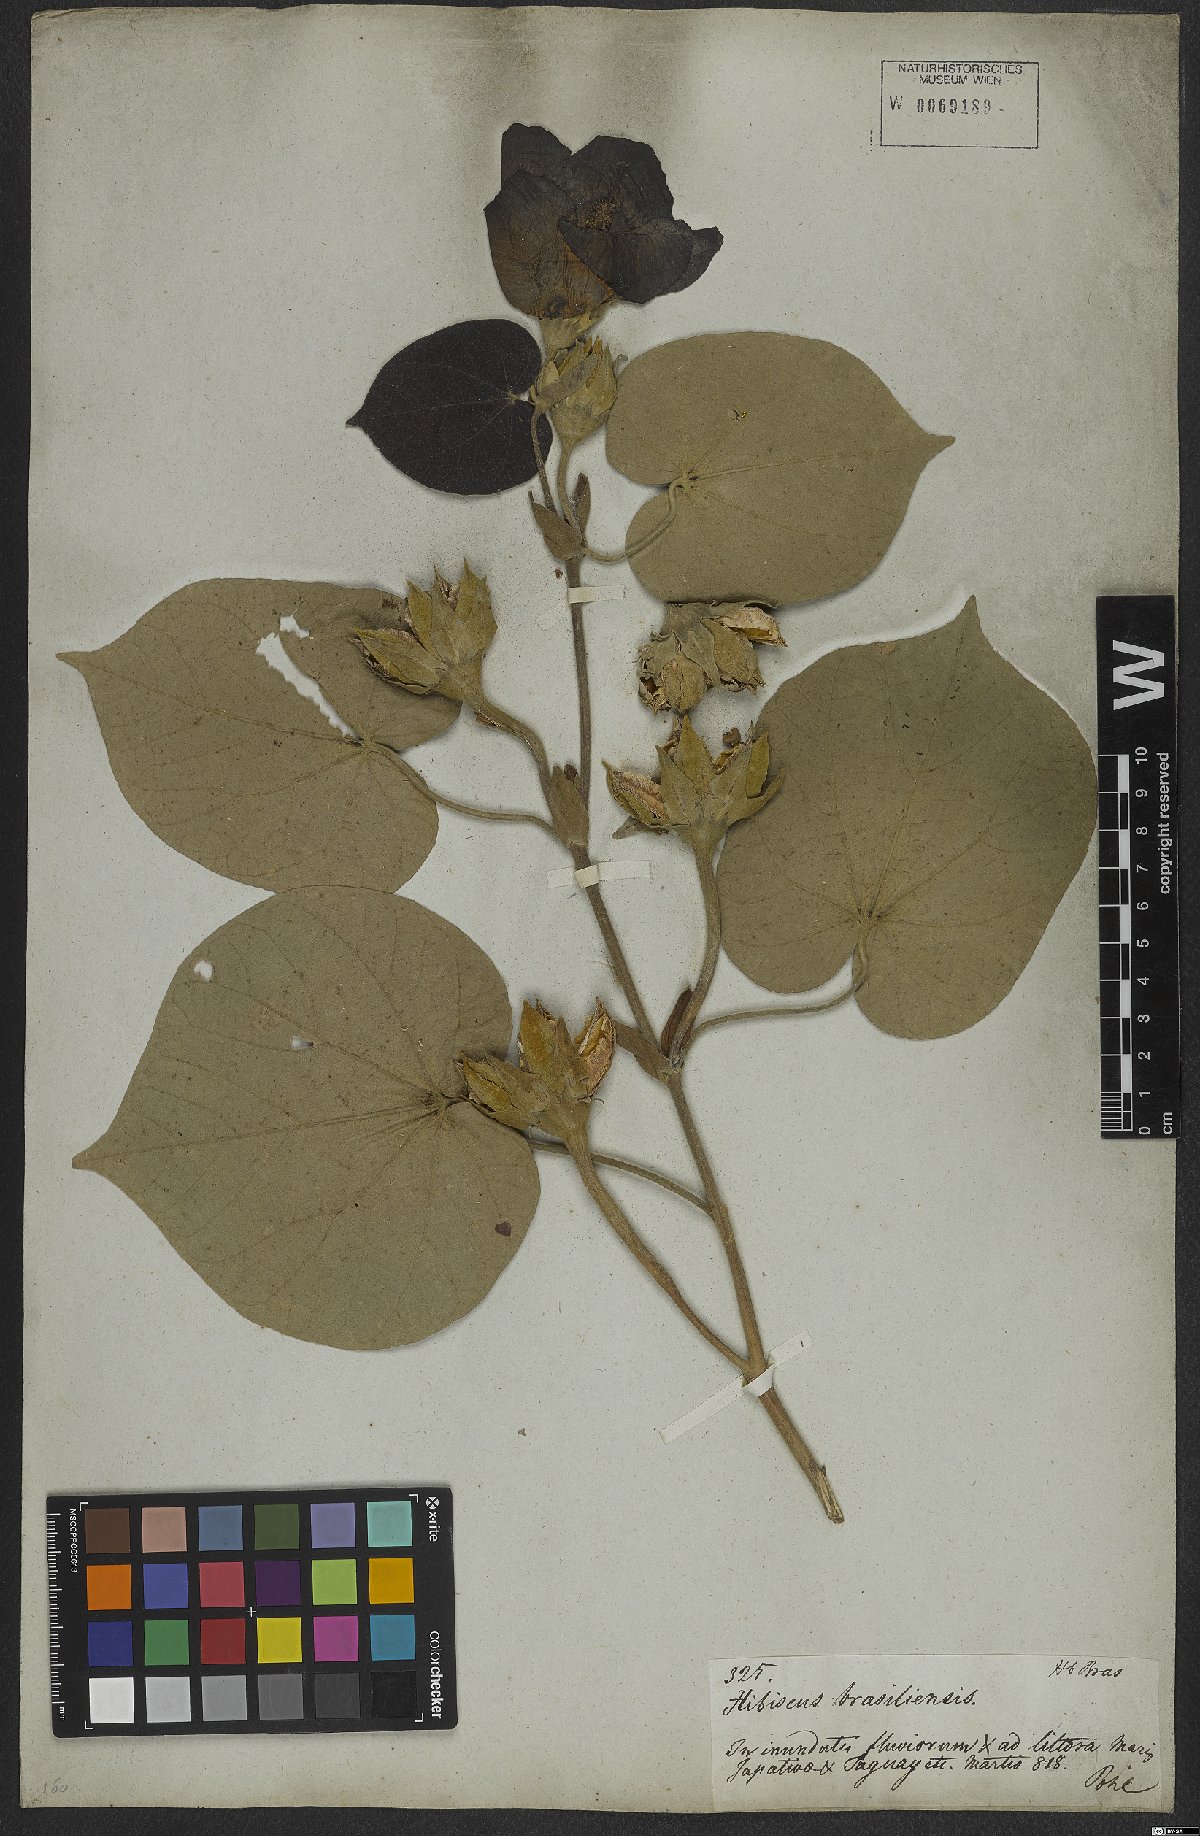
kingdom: Plantae
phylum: Tracheophyta
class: Magnoliopsida
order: Malvales
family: Malvaceae
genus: Talipariti
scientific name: Talipariti tiliaceum
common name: Sea hibiscus
